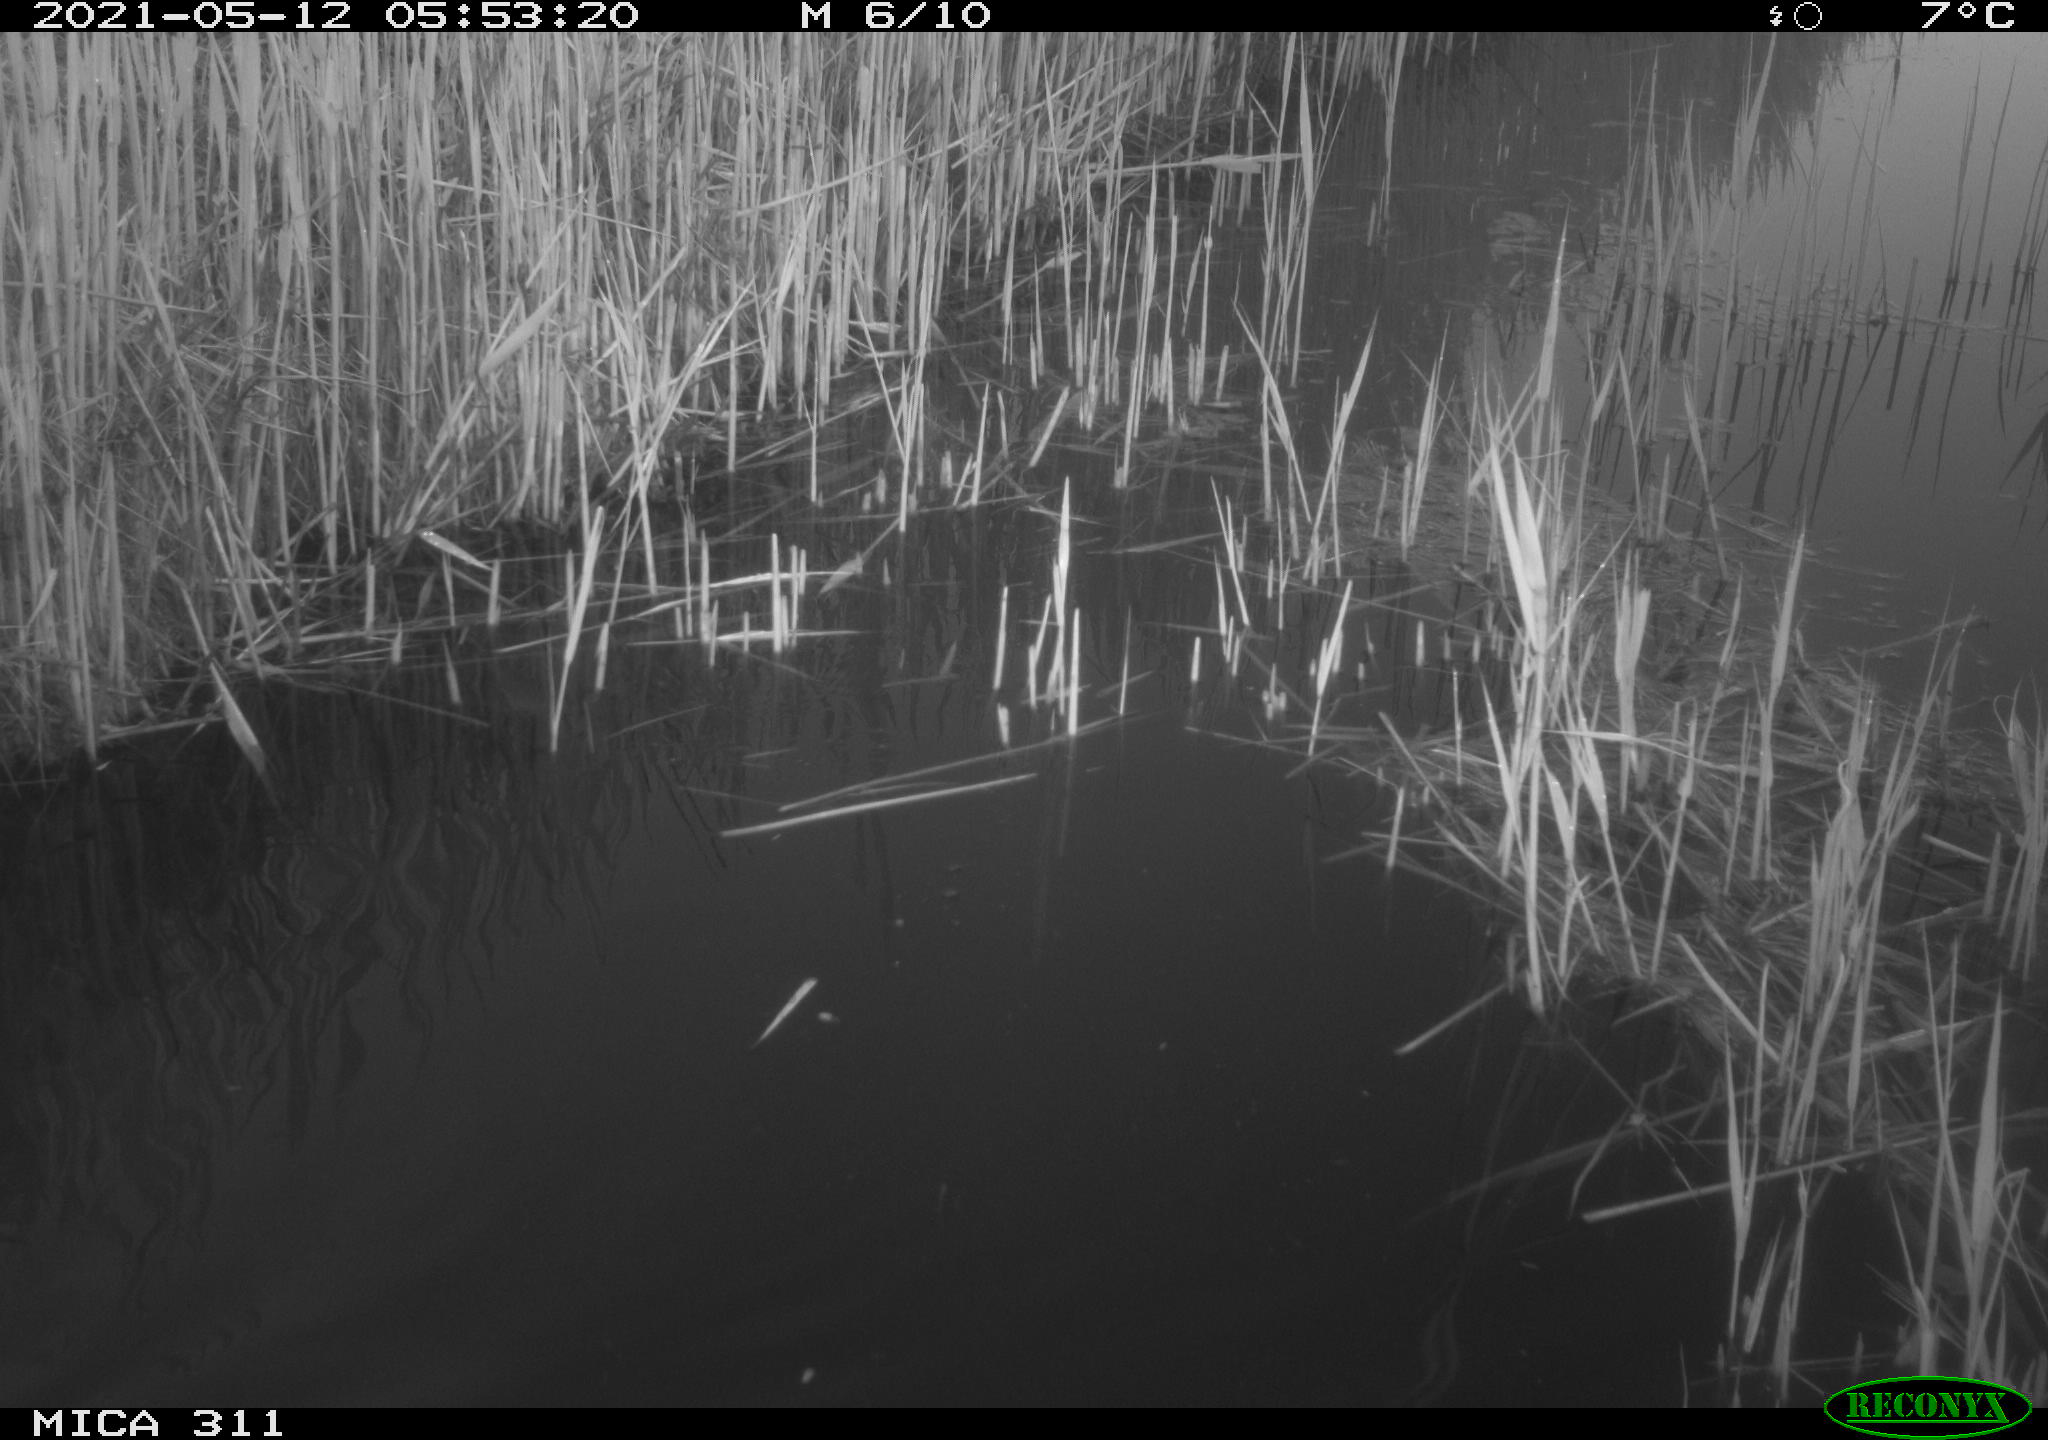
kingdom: Animalia
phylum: Chordata
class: Aves
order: Gruiformes
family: Rallidae
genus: Gallinula
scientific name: Gallinula chloropus
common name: Common moorhen
